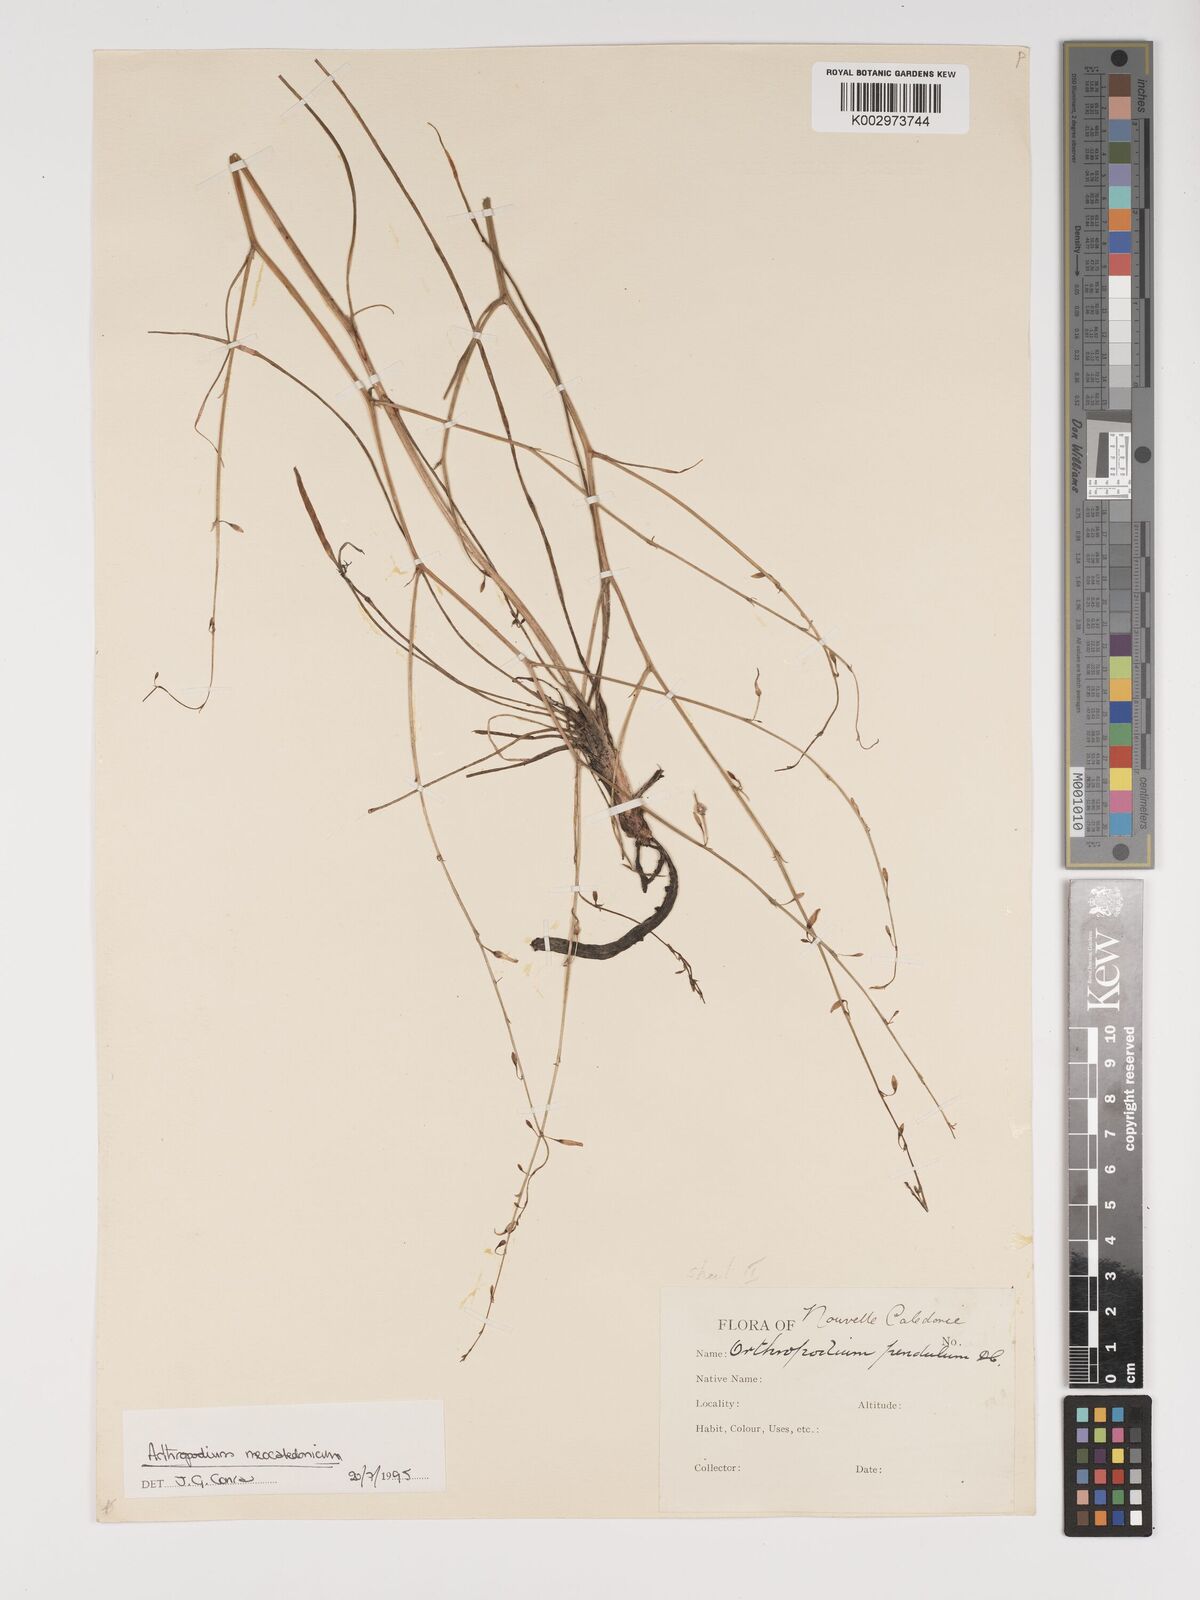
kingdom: Plantae
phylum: Tracheophyta
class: Liliopsida
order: Asparagales
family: Asparagaceae
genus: Arthropodium
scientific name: Arthropodium neocaledonicum
